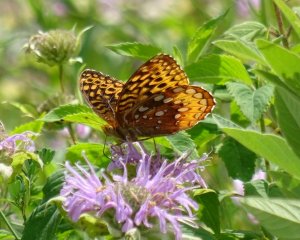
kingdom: Animalia
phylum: Arthropoda
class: Insecta
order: Lepidoptera
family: Nymphalidae
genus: Speyeria
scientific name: Speyeria cybele
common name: Great Spangled Fritillary
